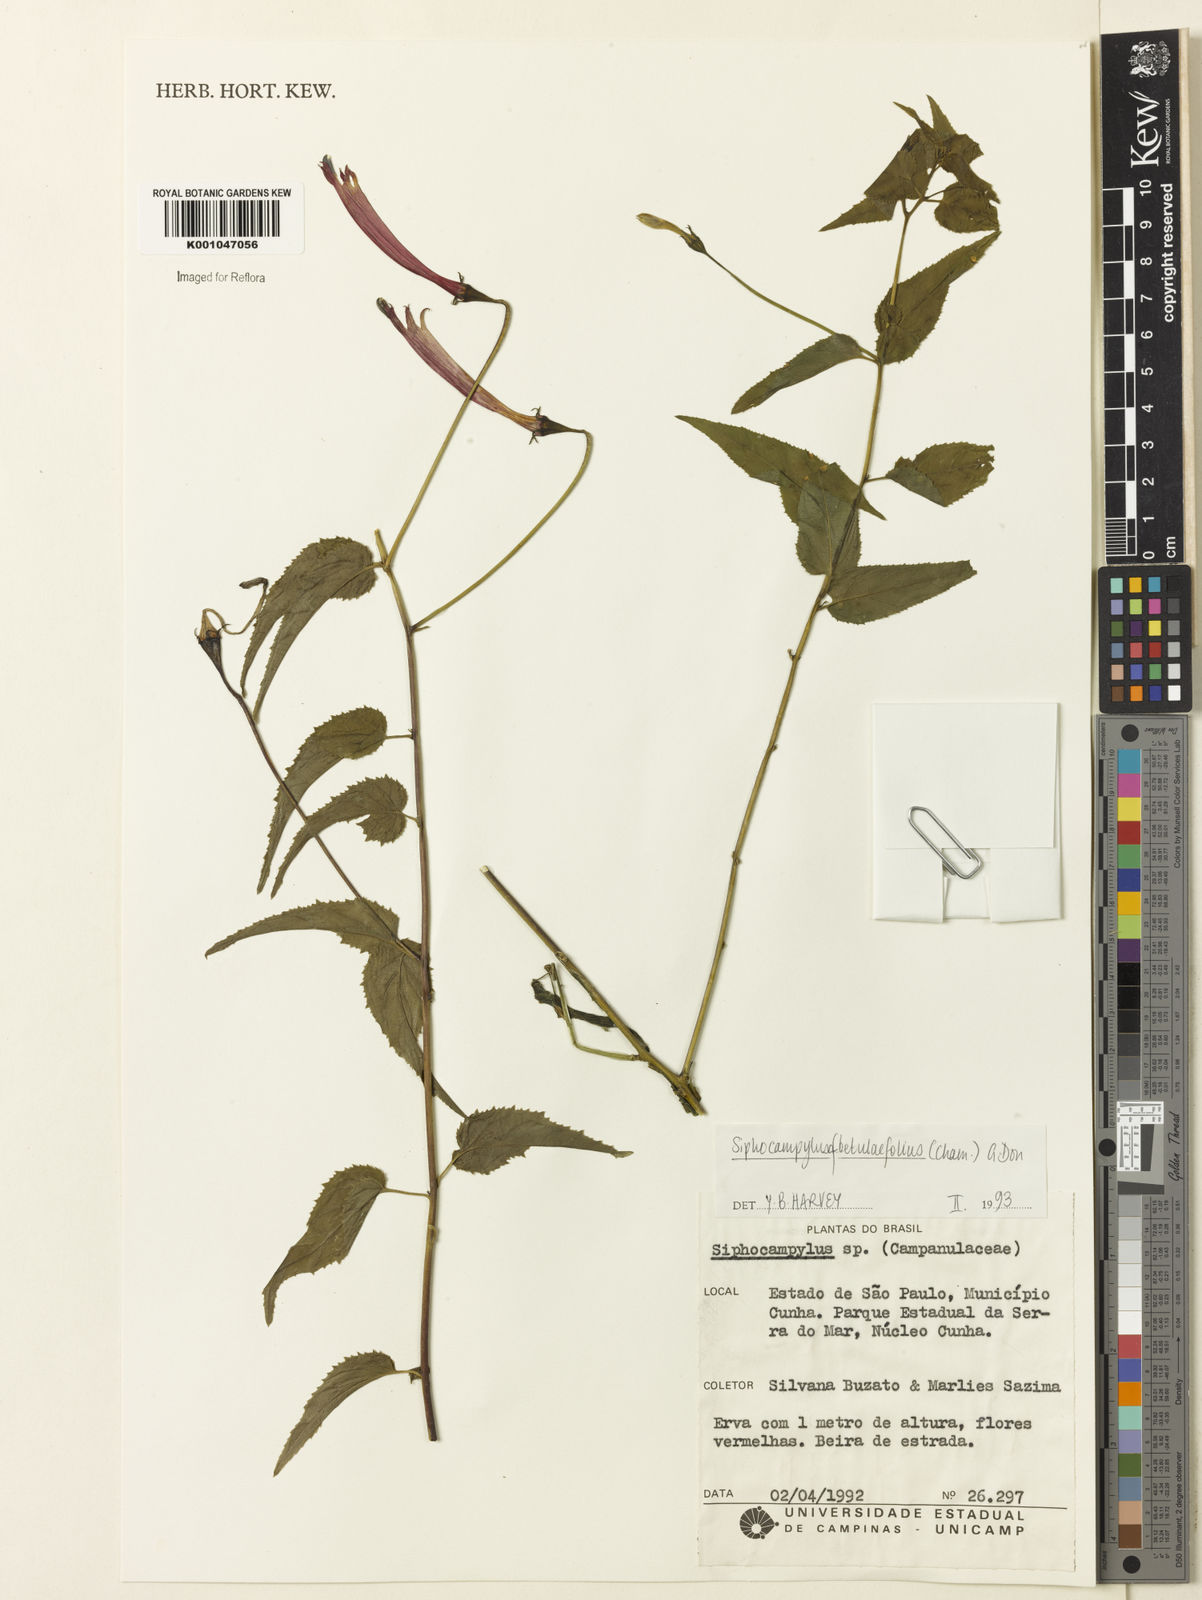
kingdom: Plantae
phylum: Tracheophyta
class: Magnoliopsida
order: Asterales
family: Campanulaceae
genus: Siphocampylus
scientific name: Siphocampylus betulifolius
